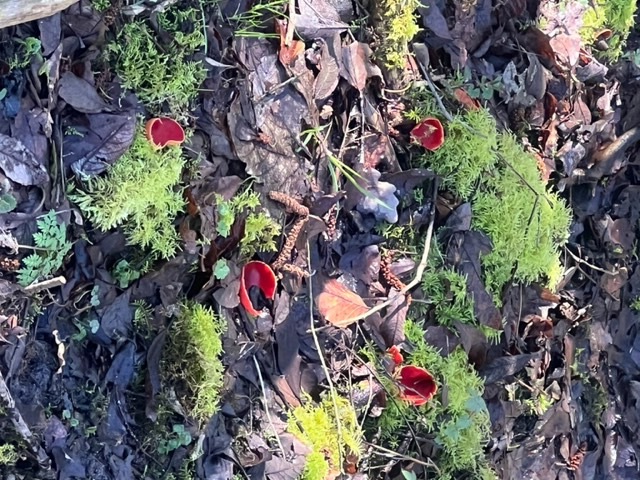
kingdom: Fungi
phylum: Ascomycota
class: Pezizomycetes
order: Pezizales
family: Sarcoscyphaceae
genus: Sarcoscypha
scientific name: Sarcoscypha austriaca
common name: krølhåret pragtbæger
